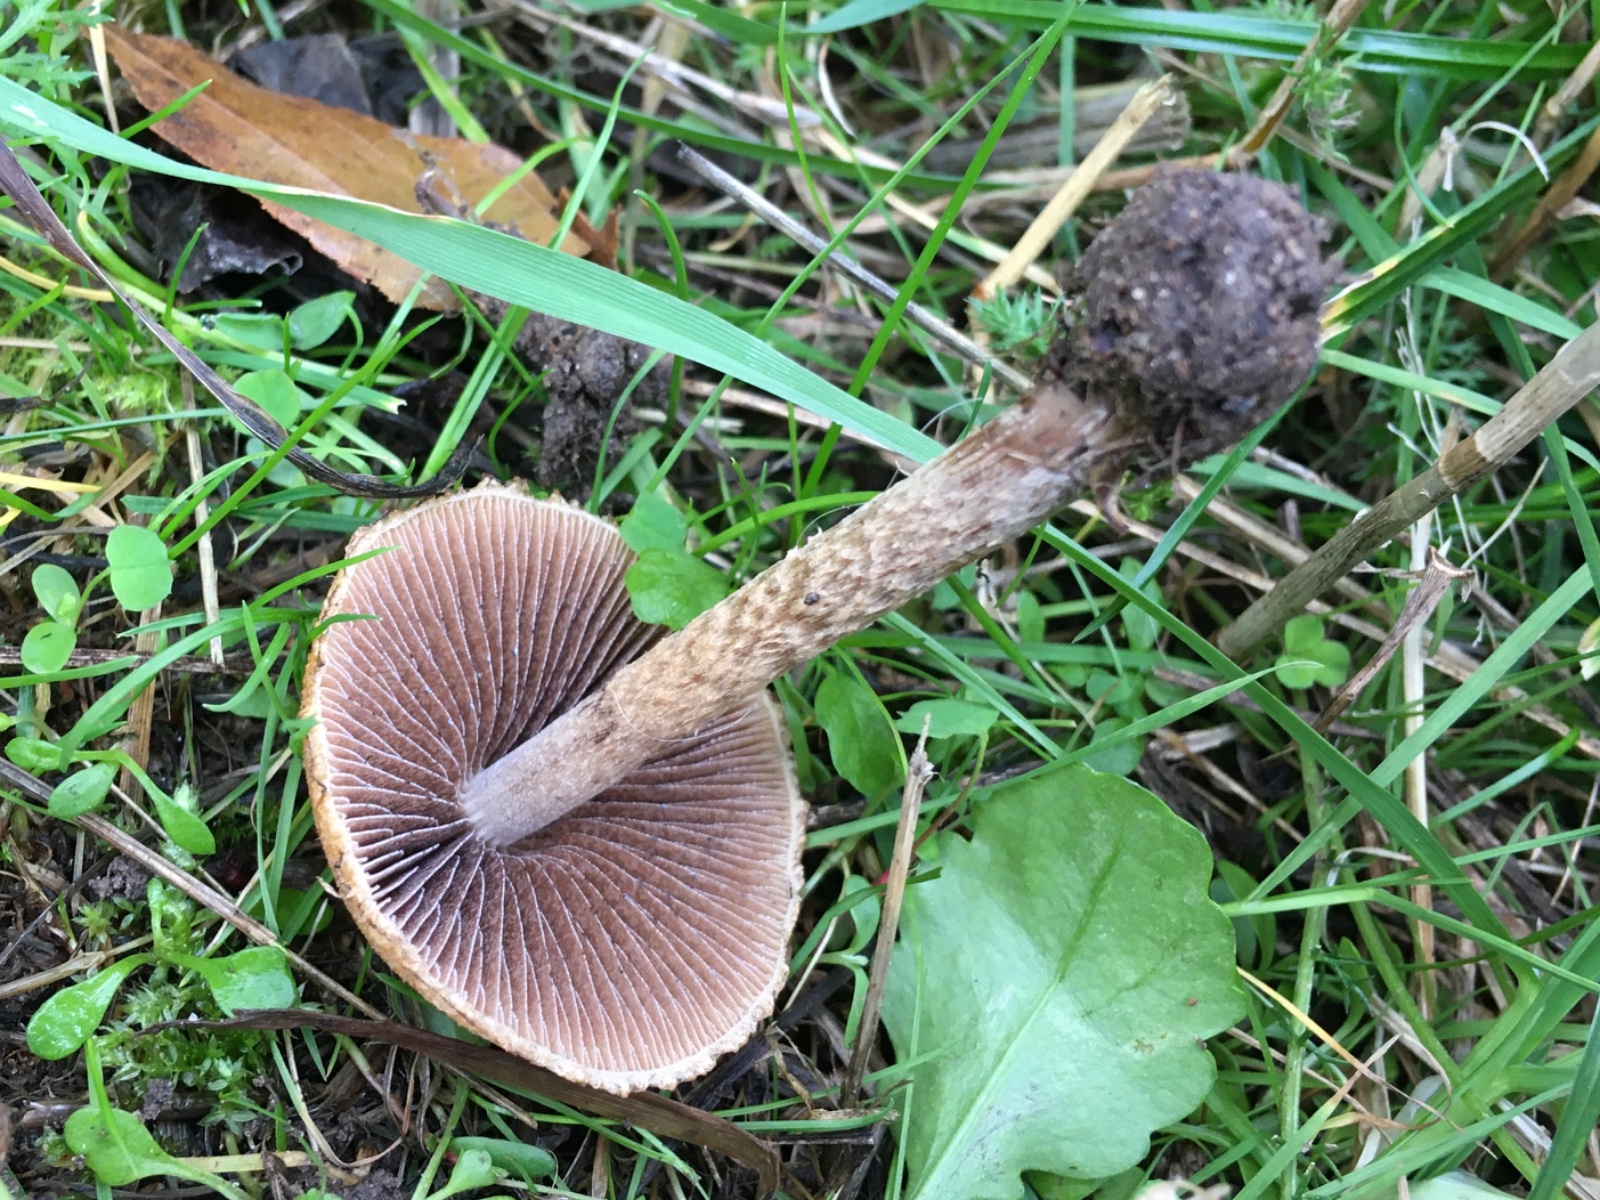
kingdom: Fungi
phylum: Basidiomycota
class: Agaricomycetes
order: Agaricales
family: Psathyrellaceae
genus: Lacrymaria
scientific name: Lacrymaria lacrymabunda
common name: grædende mørkhat
